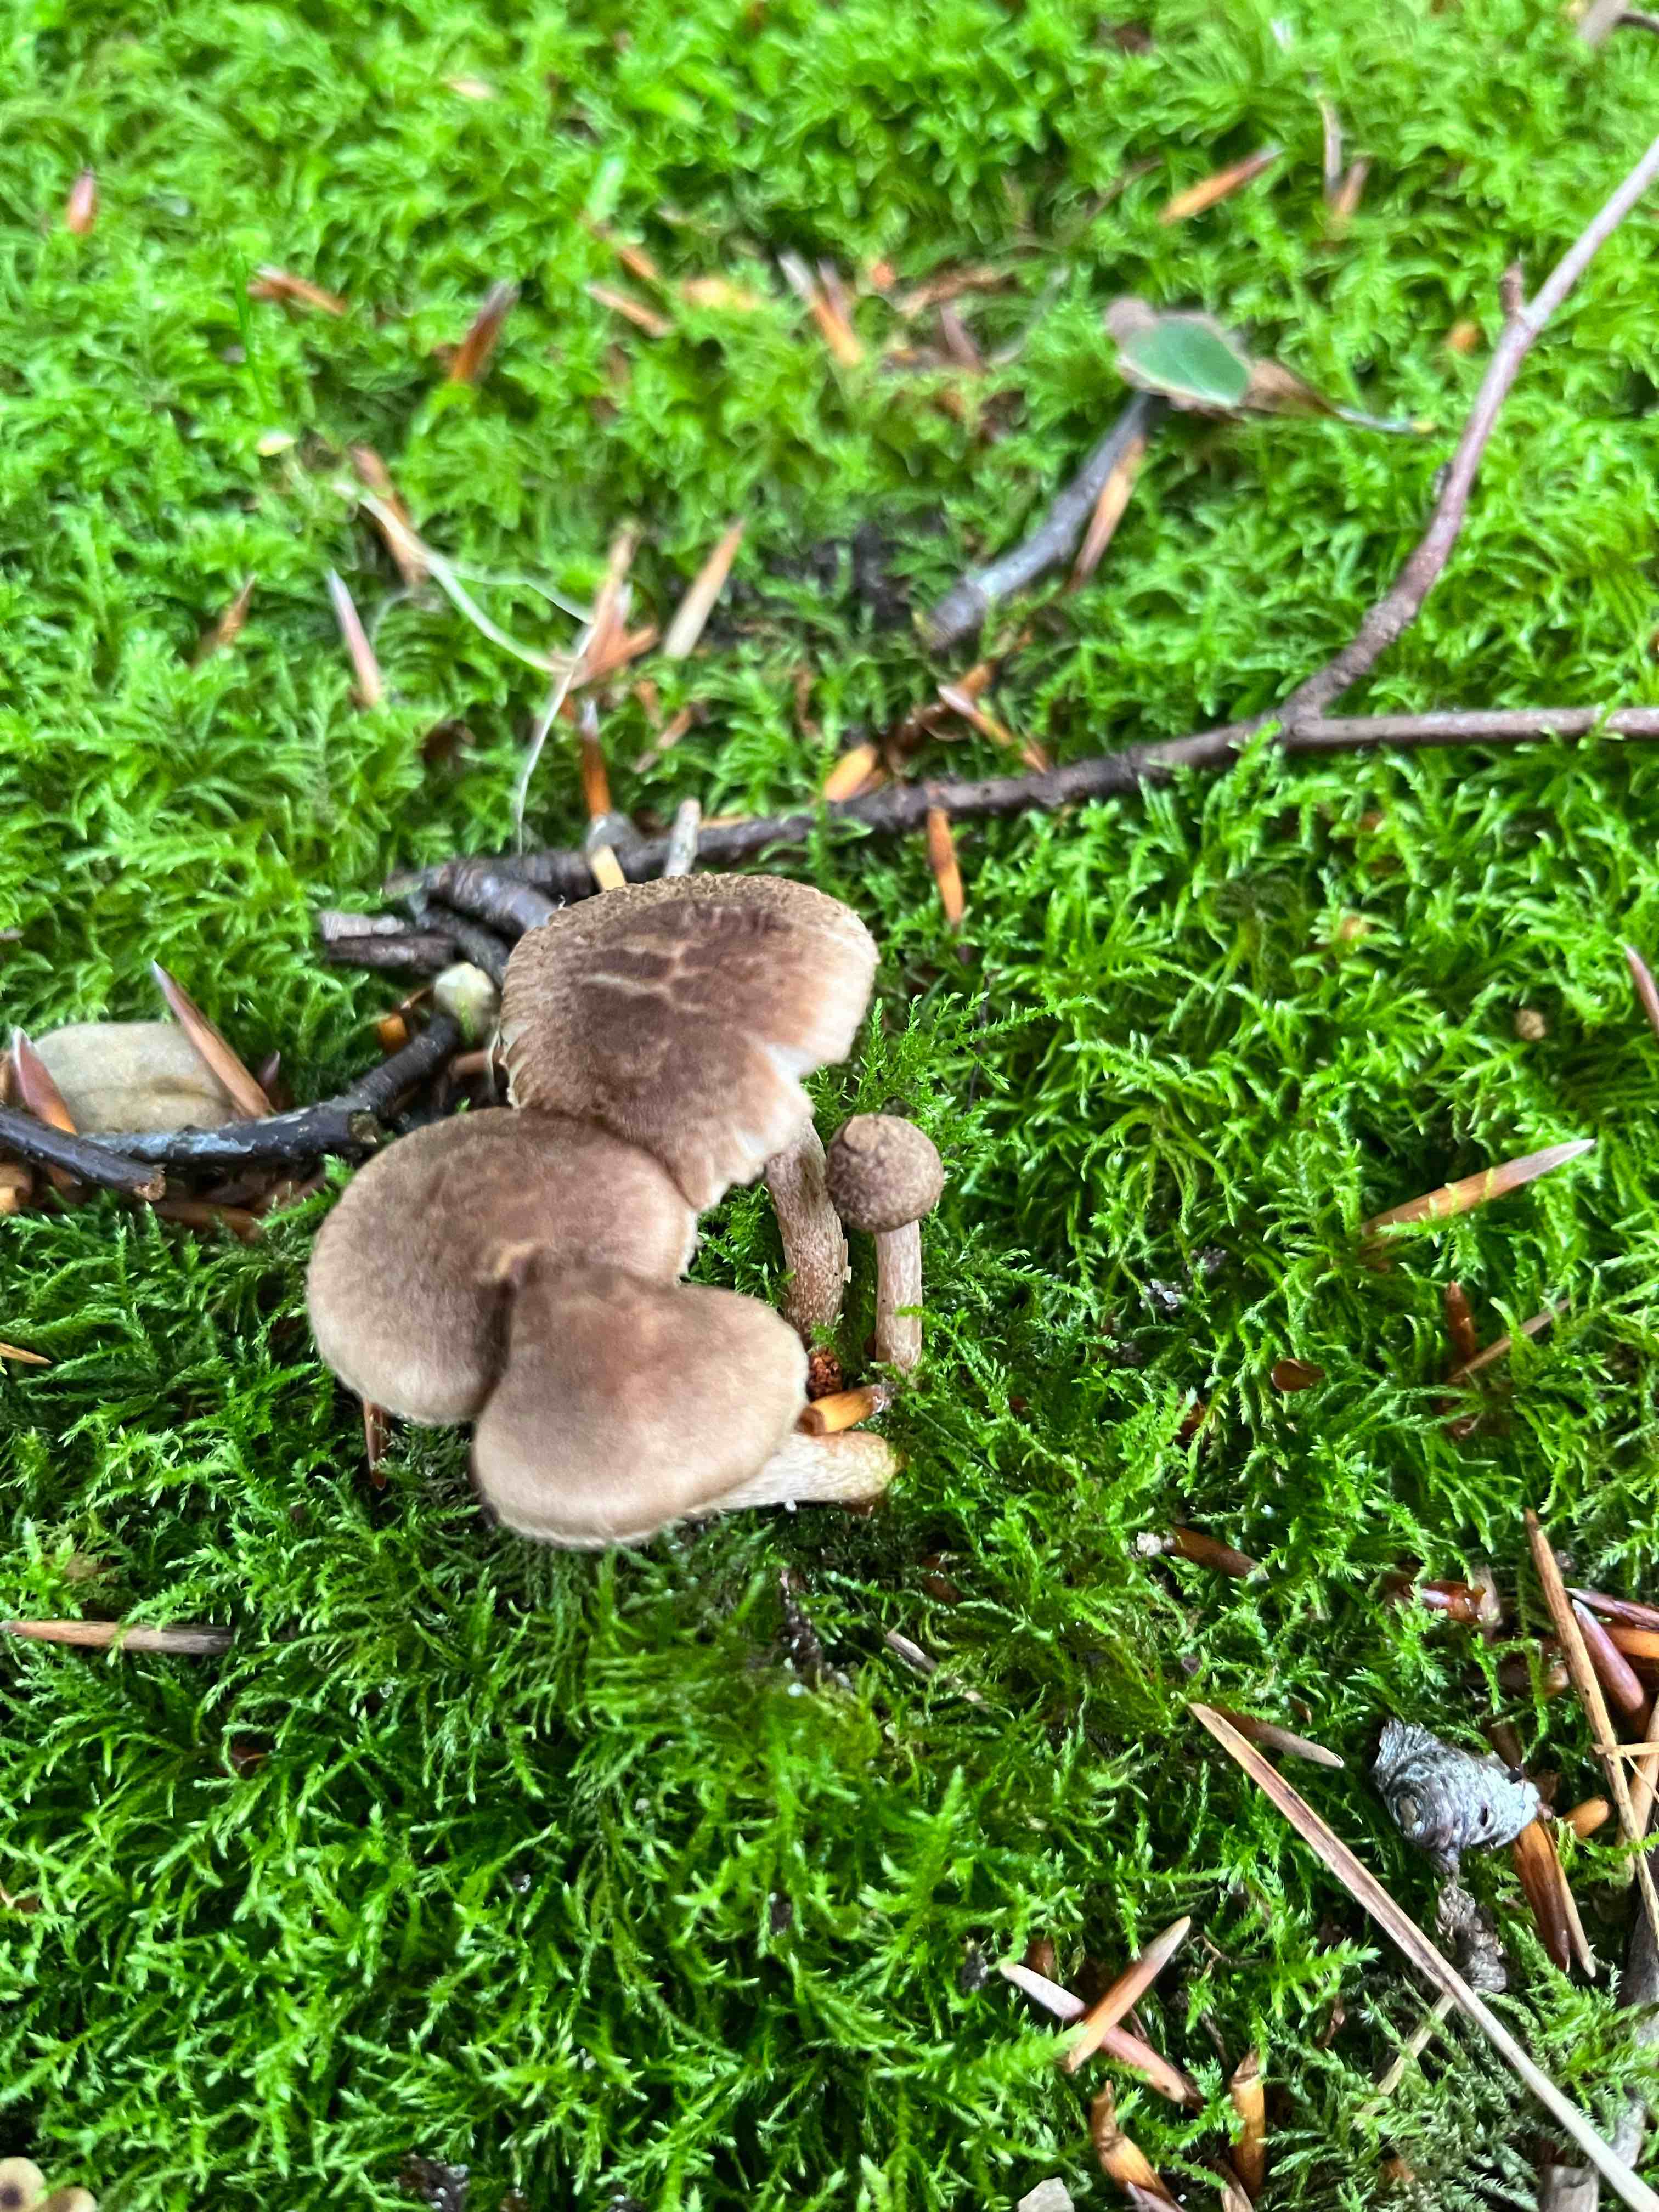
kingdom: Fungi
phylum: Basidiomycota
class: Agaricomycetes
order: Agaricales
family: Inocybaceae
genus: Inocybe
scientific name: Inocybe
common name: trævlhat
